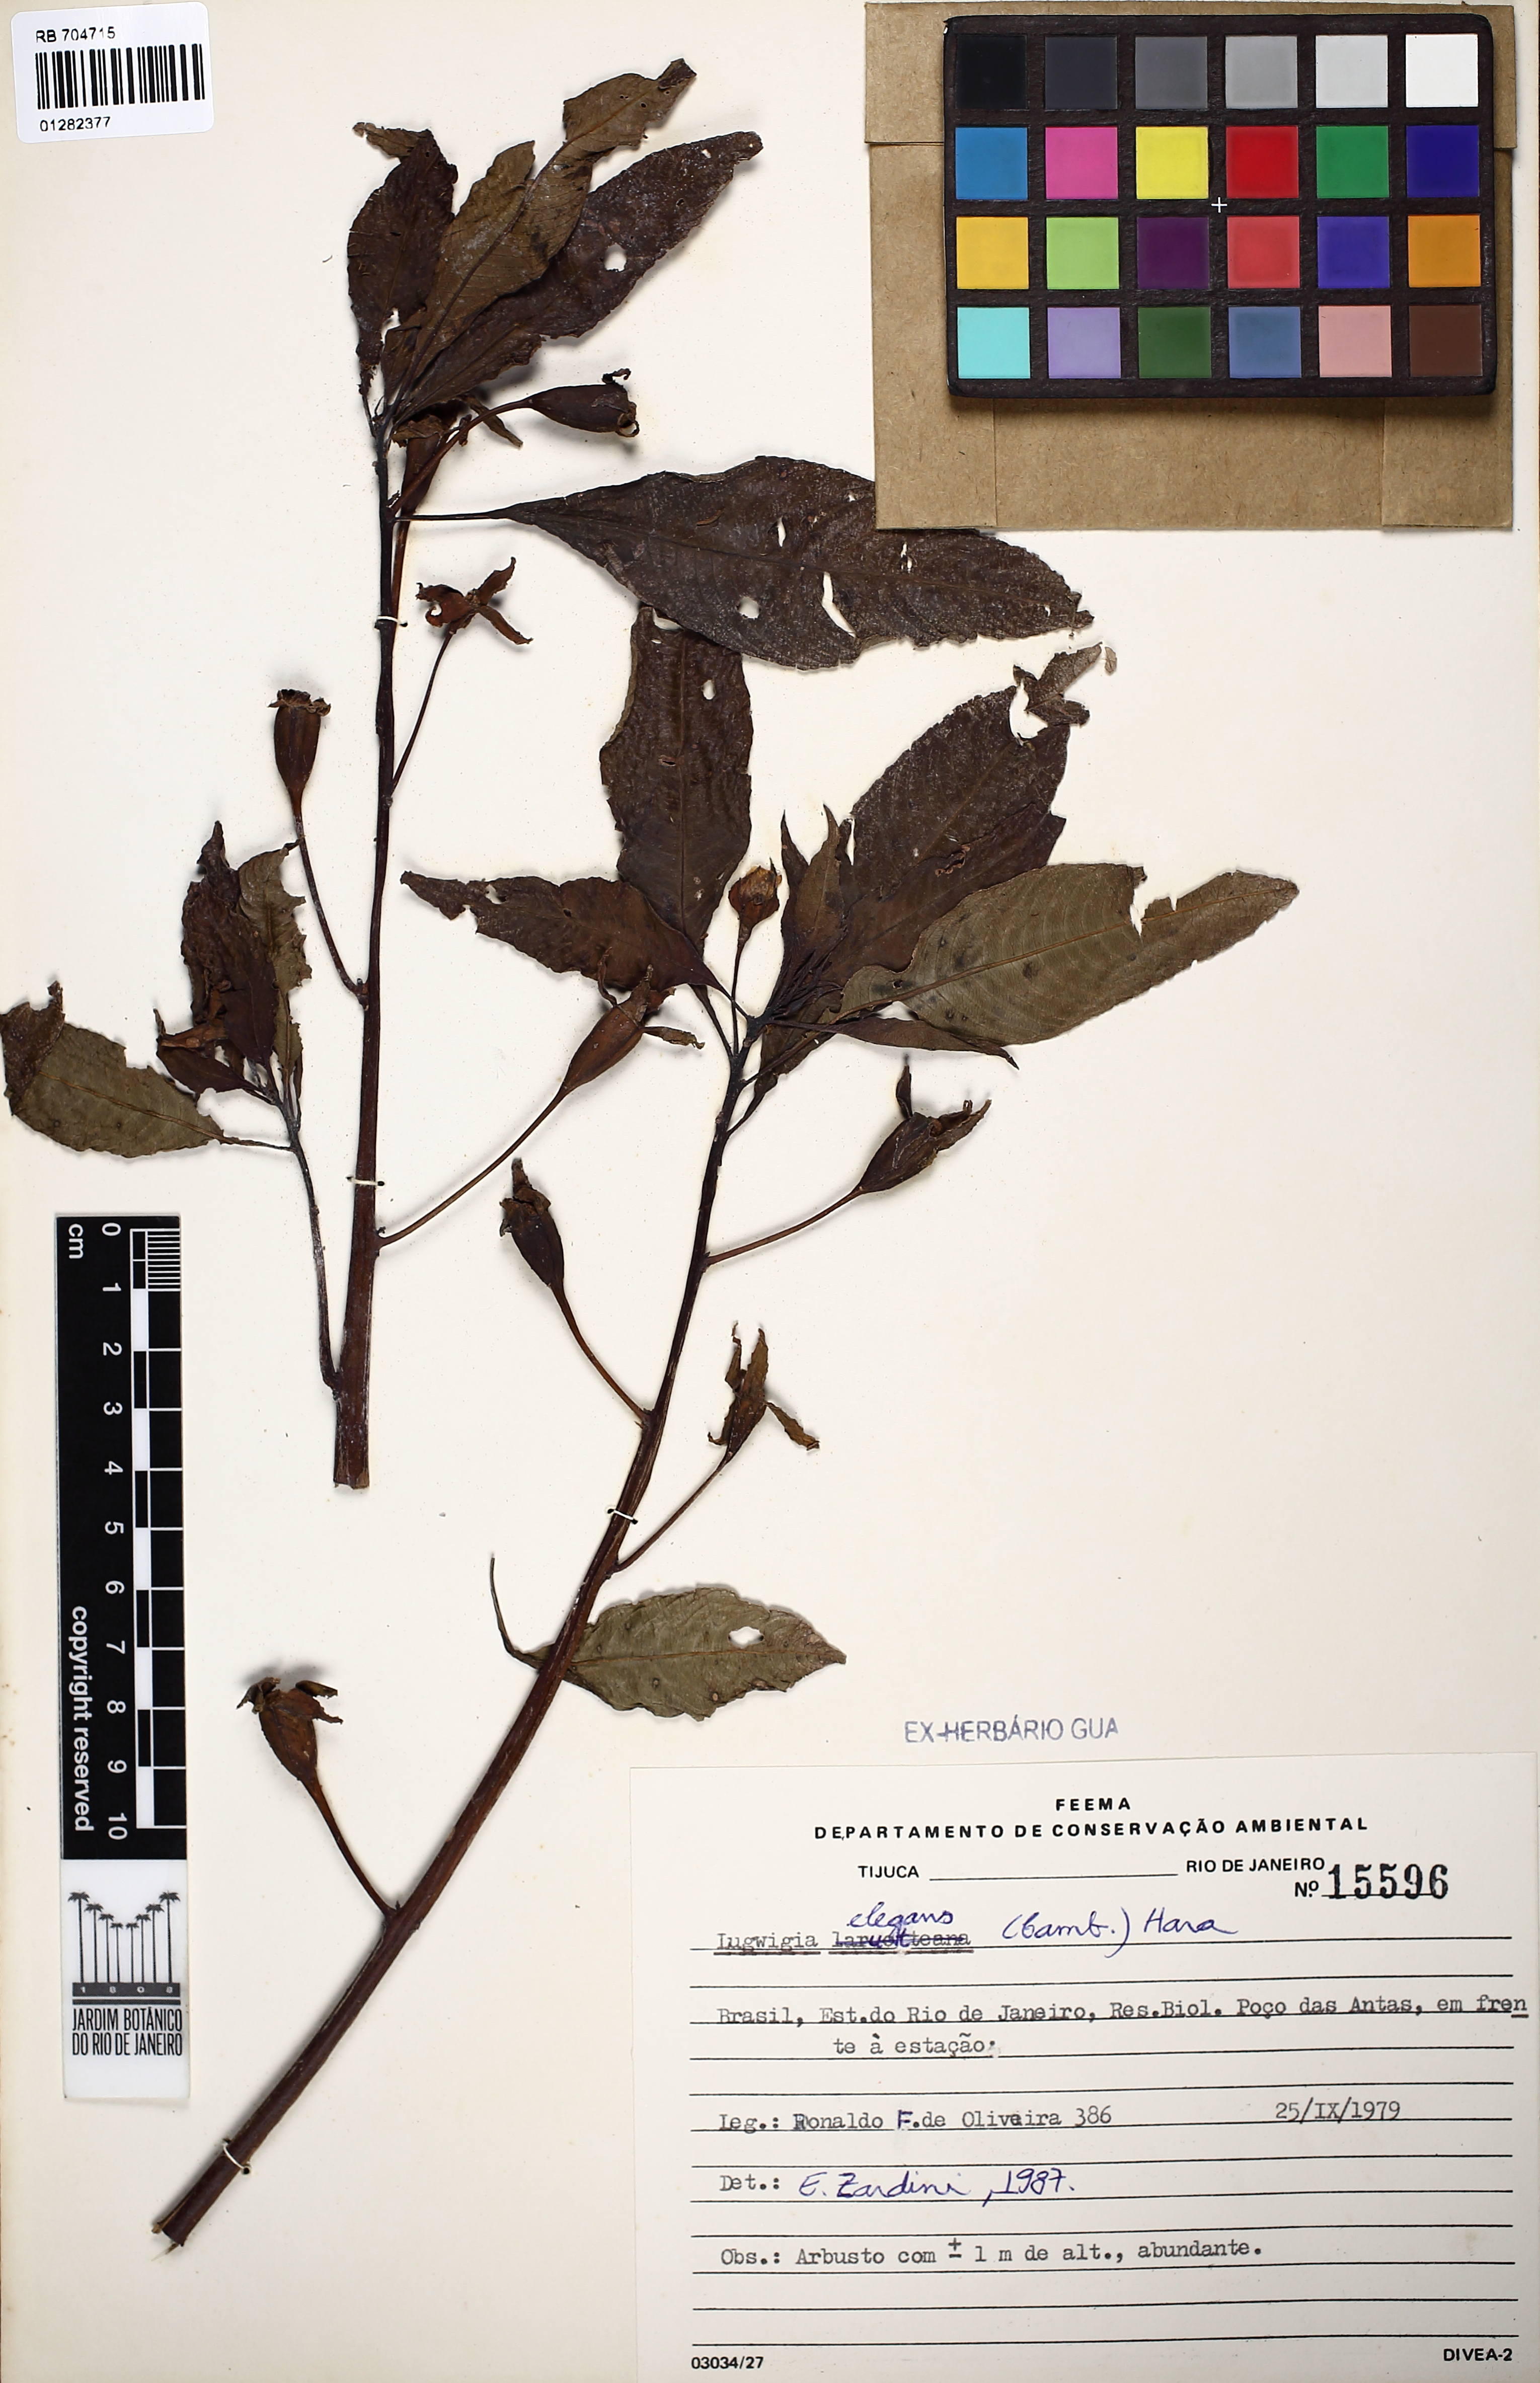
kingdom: Plantae
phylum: Tracheophyta
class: Magnoliopsida
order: Myrtales
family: Onagraceae
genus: Ludwigia
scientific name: Ludwigia elegans
